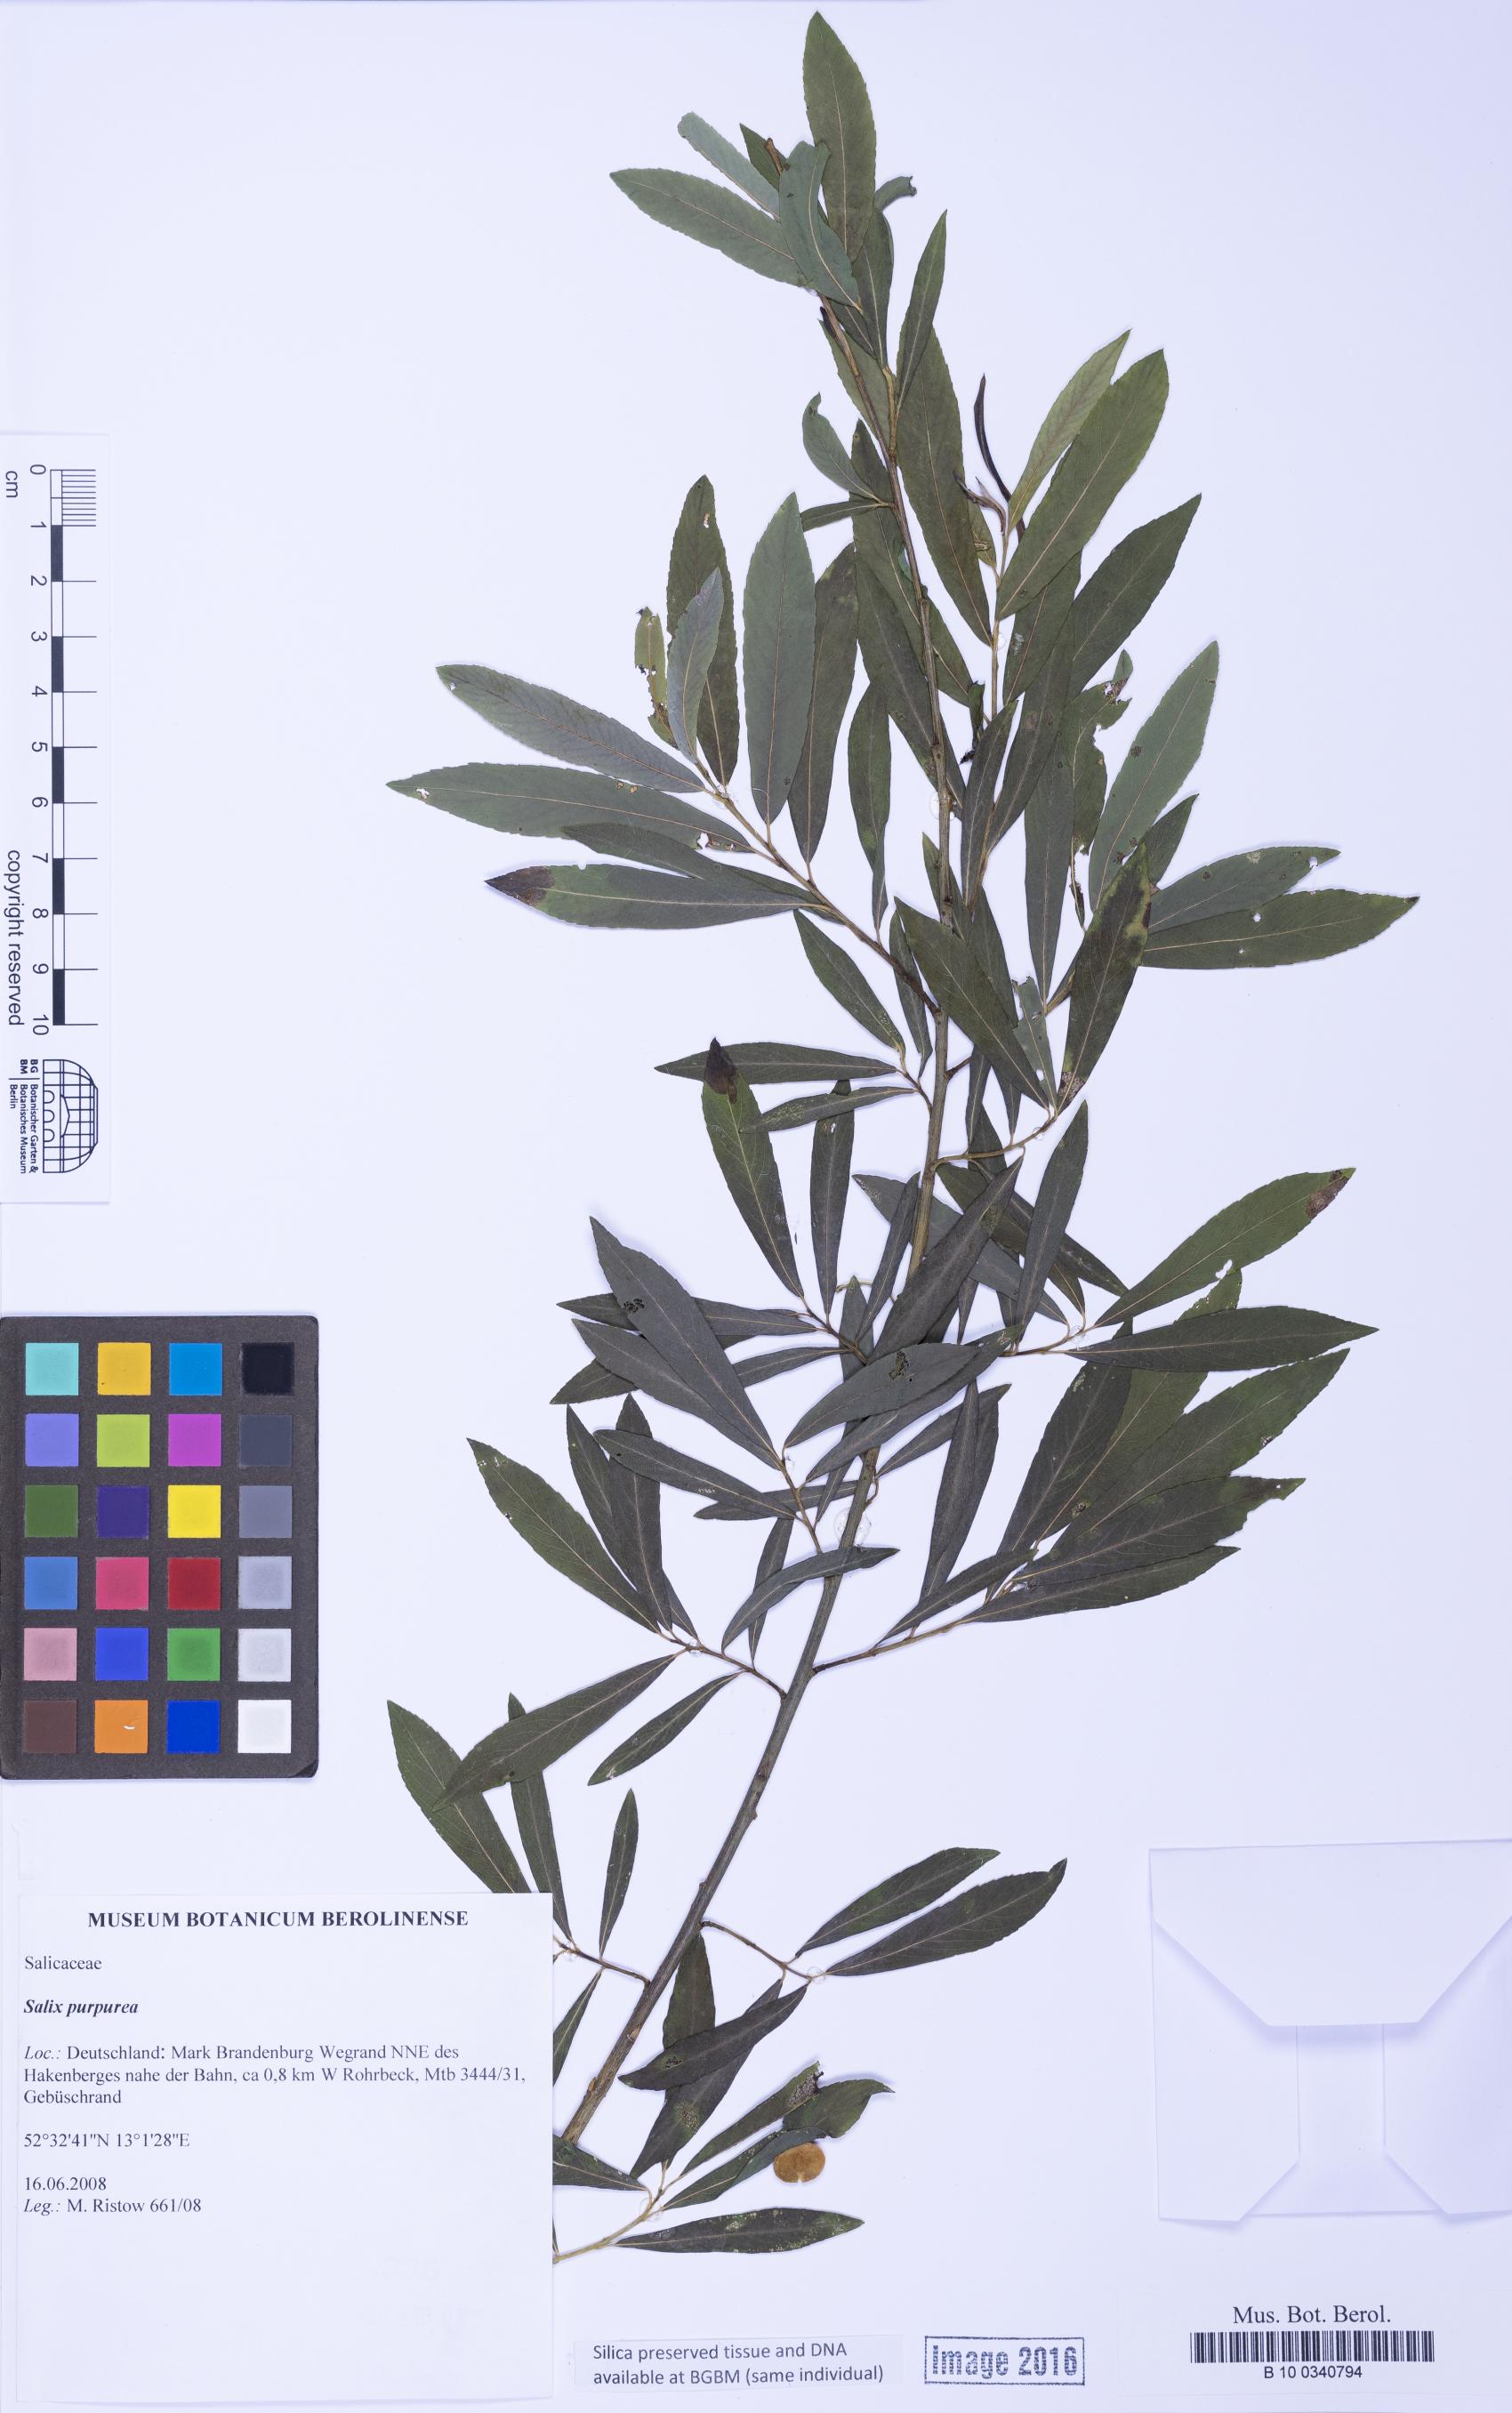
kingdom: Plantae
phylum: Tracheophyta
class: Magnoliopsida
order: Malpighiales
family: Salicaceae
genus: Salix
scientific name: Salix purpurea
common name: Purple willow
